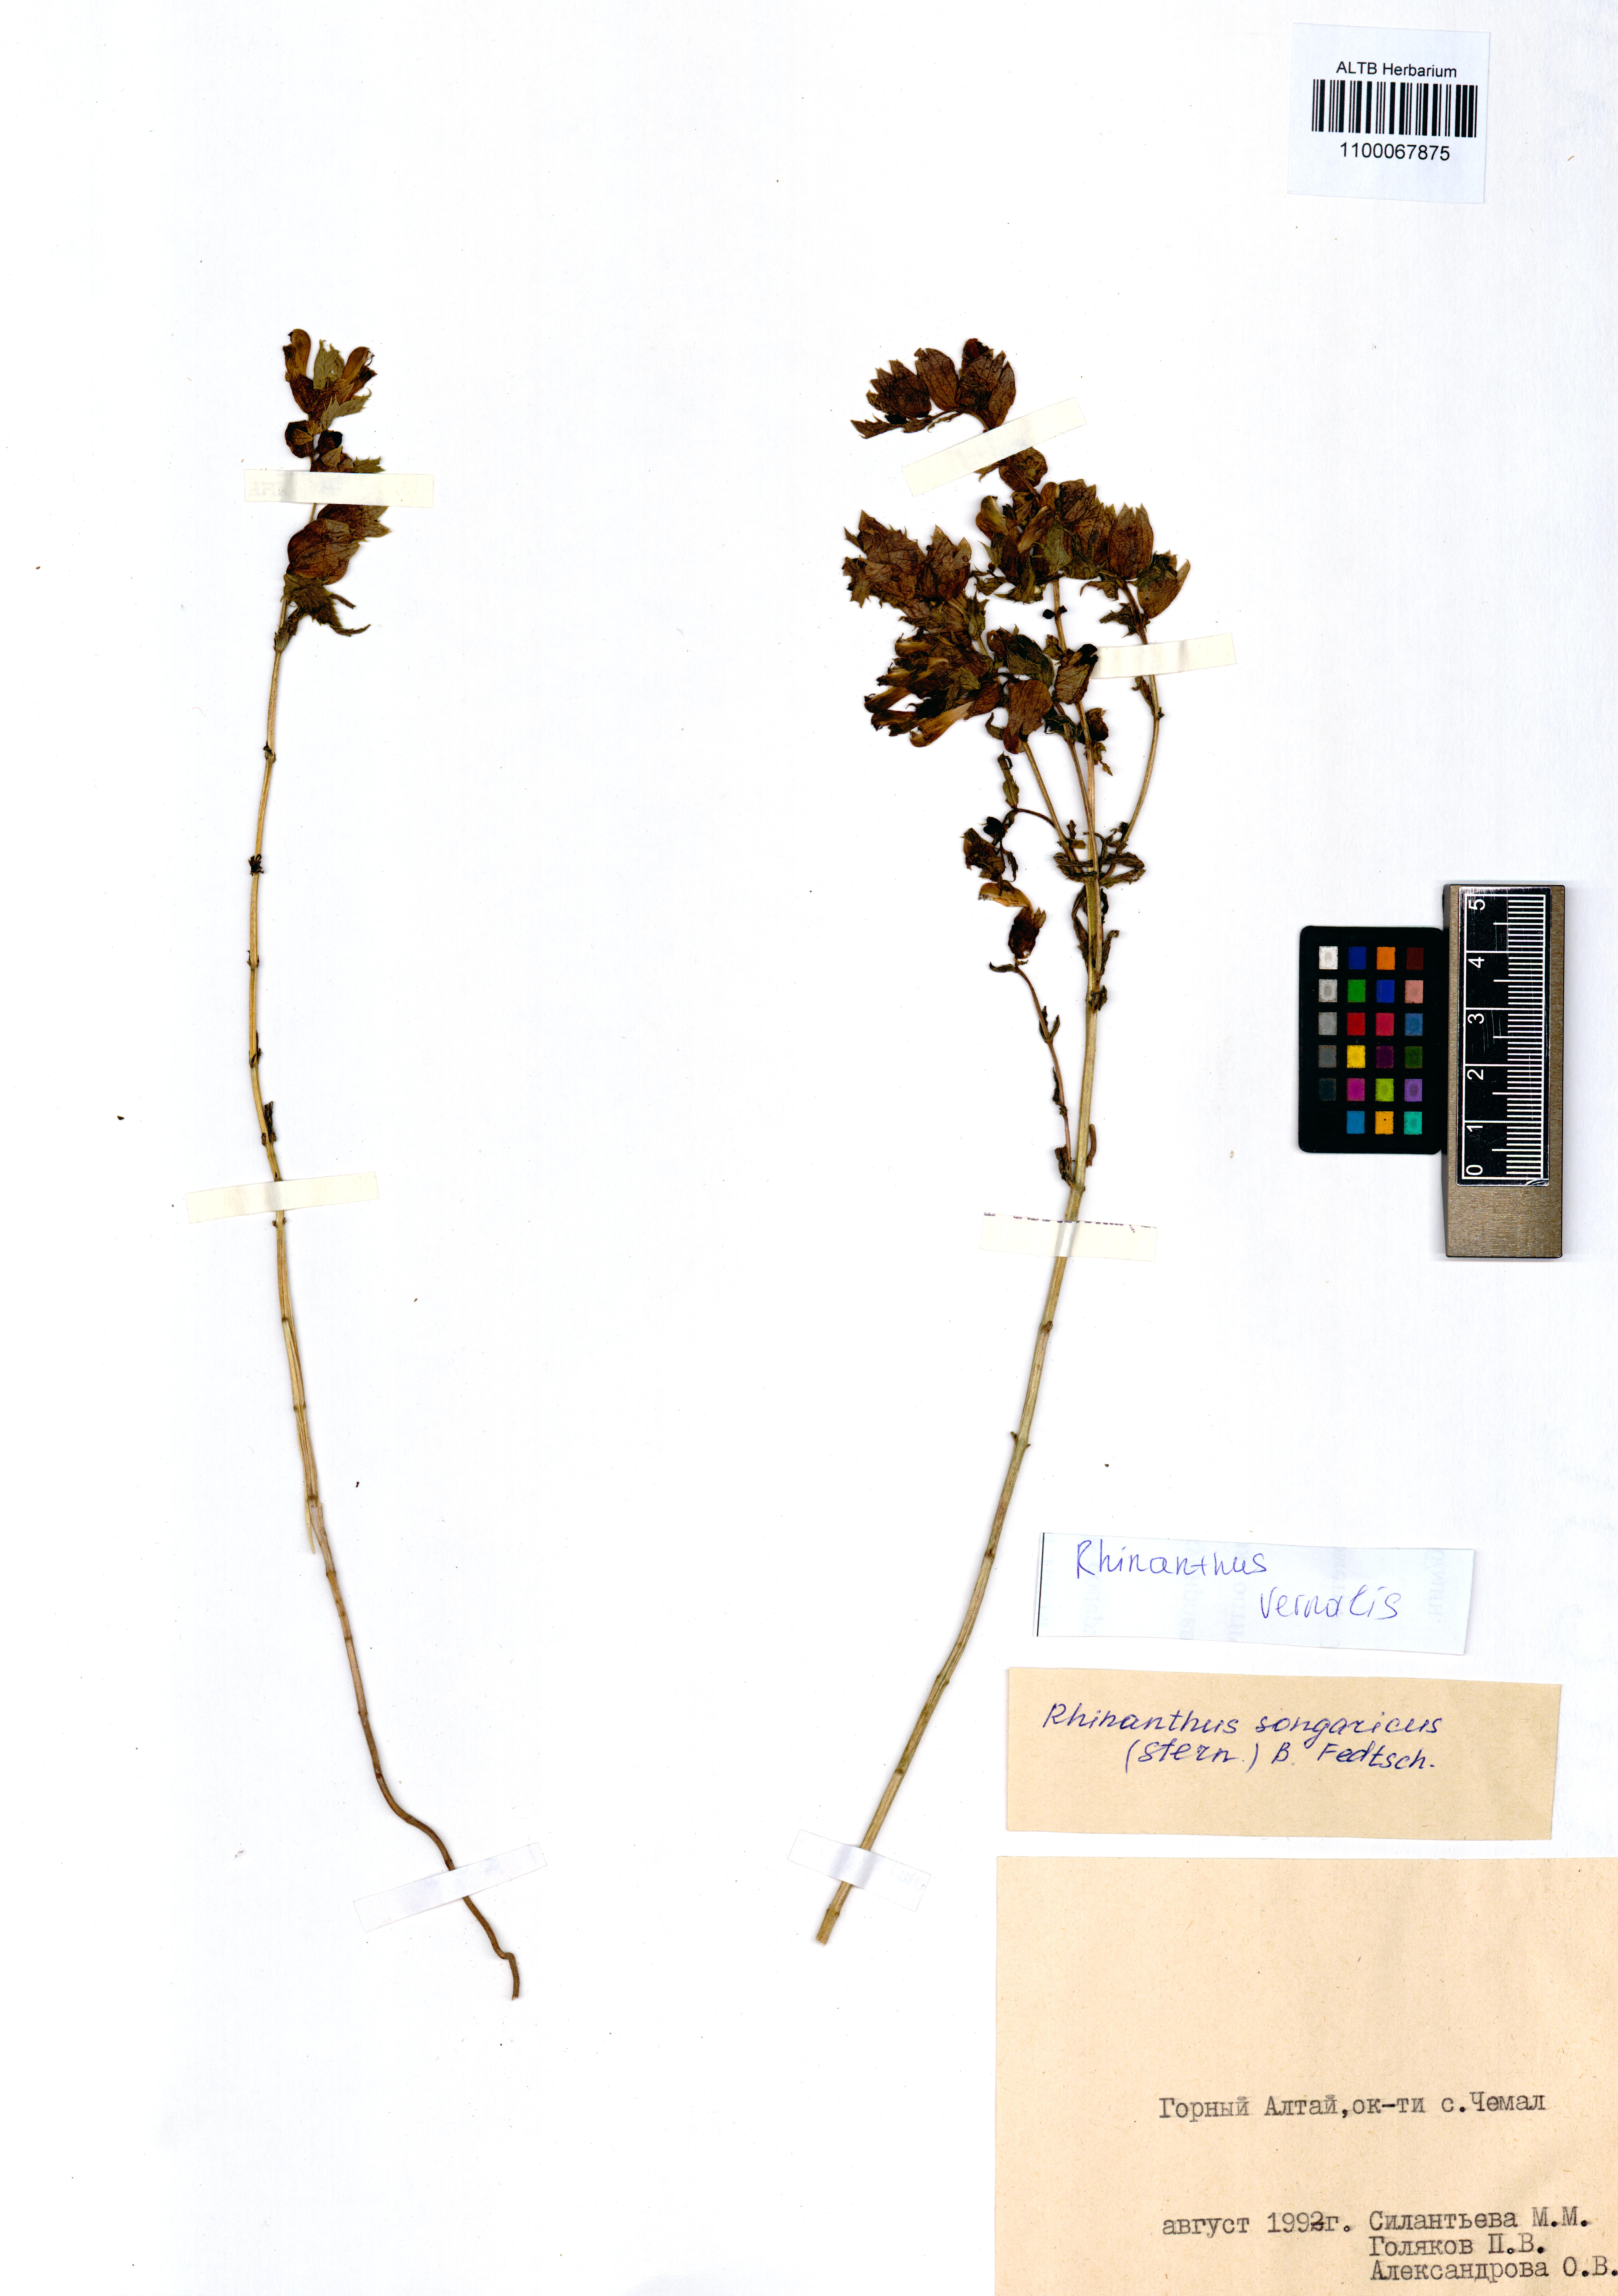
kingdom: Plantae
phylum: Tracheophyta
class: Magnoliopsida
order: Lamiales
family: Orobanchaceae
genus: Rhinanthus
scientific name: Rhinanthus serotinus
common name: Late-flowering yellow rattle
